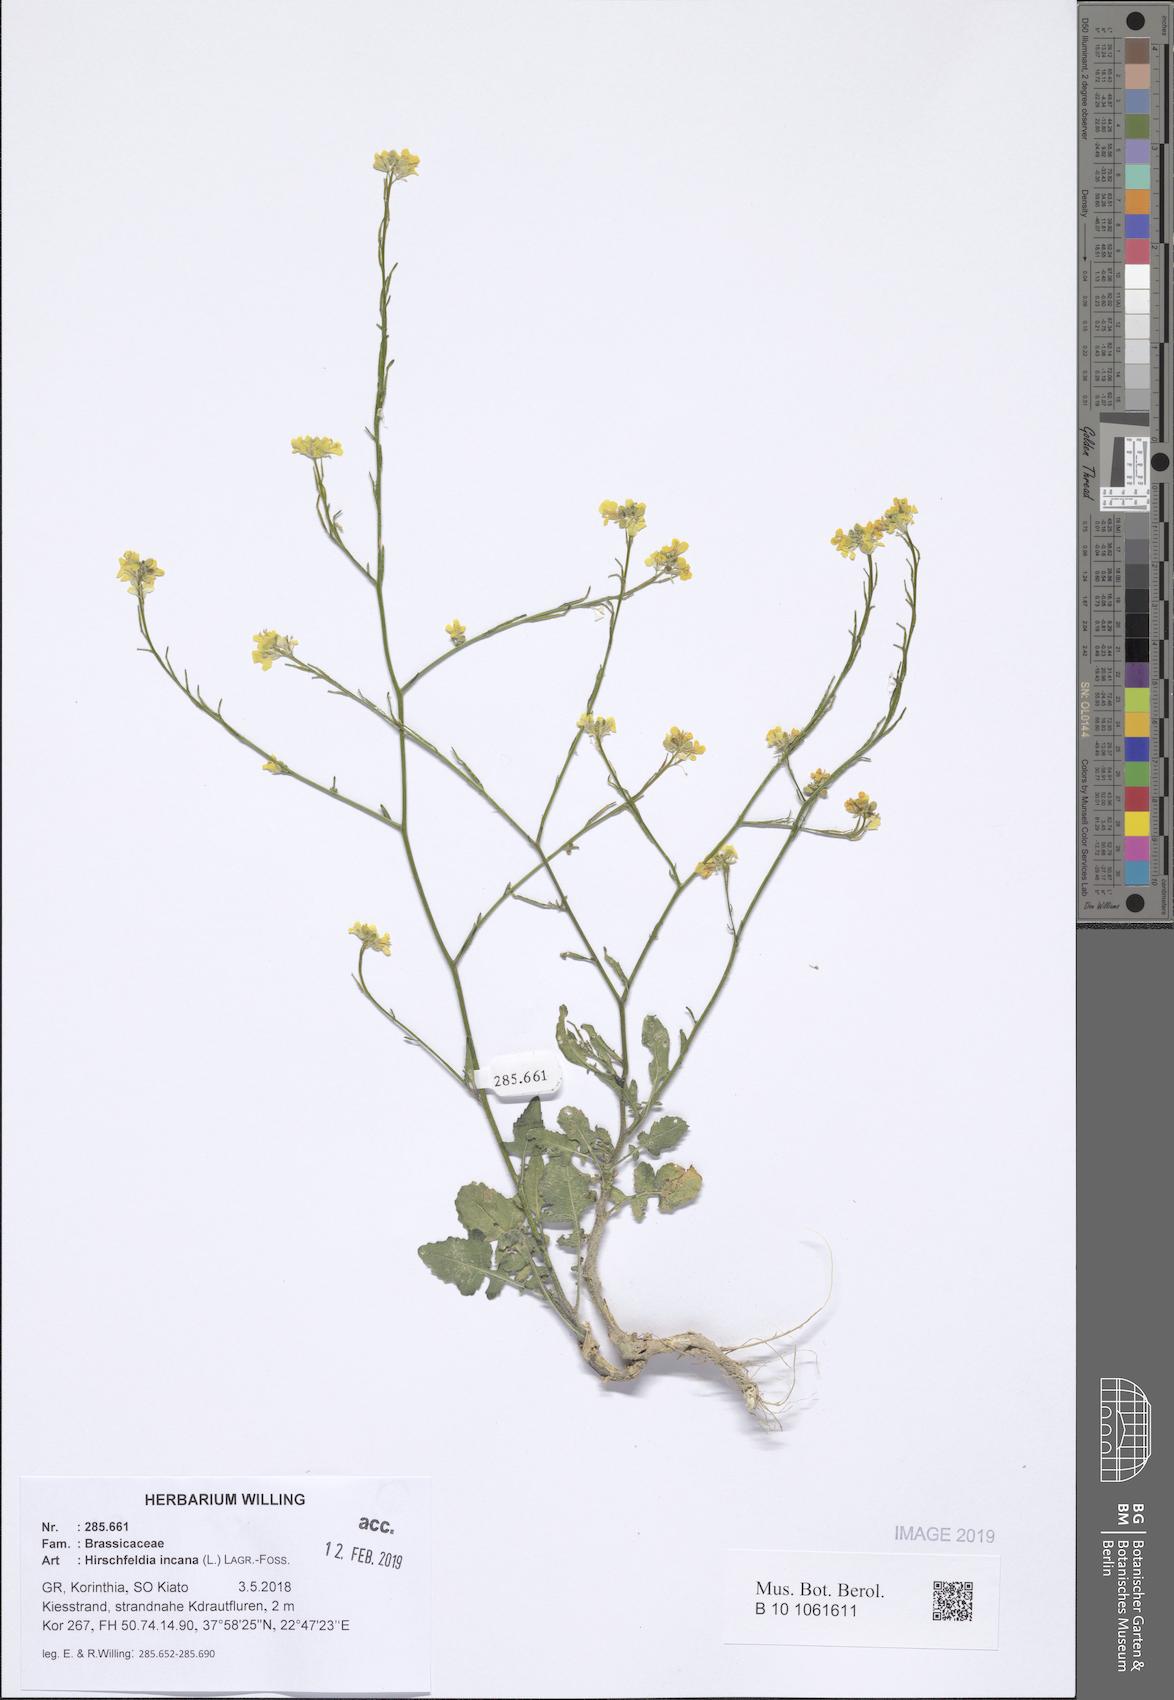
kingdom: Plantae
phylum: Tracheophyta
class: Magnoliopsida
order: Brassicales
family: Brassicaceae
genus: Hirschfeldia
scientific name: Hirschfeldia incana
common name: Hoary mustard
